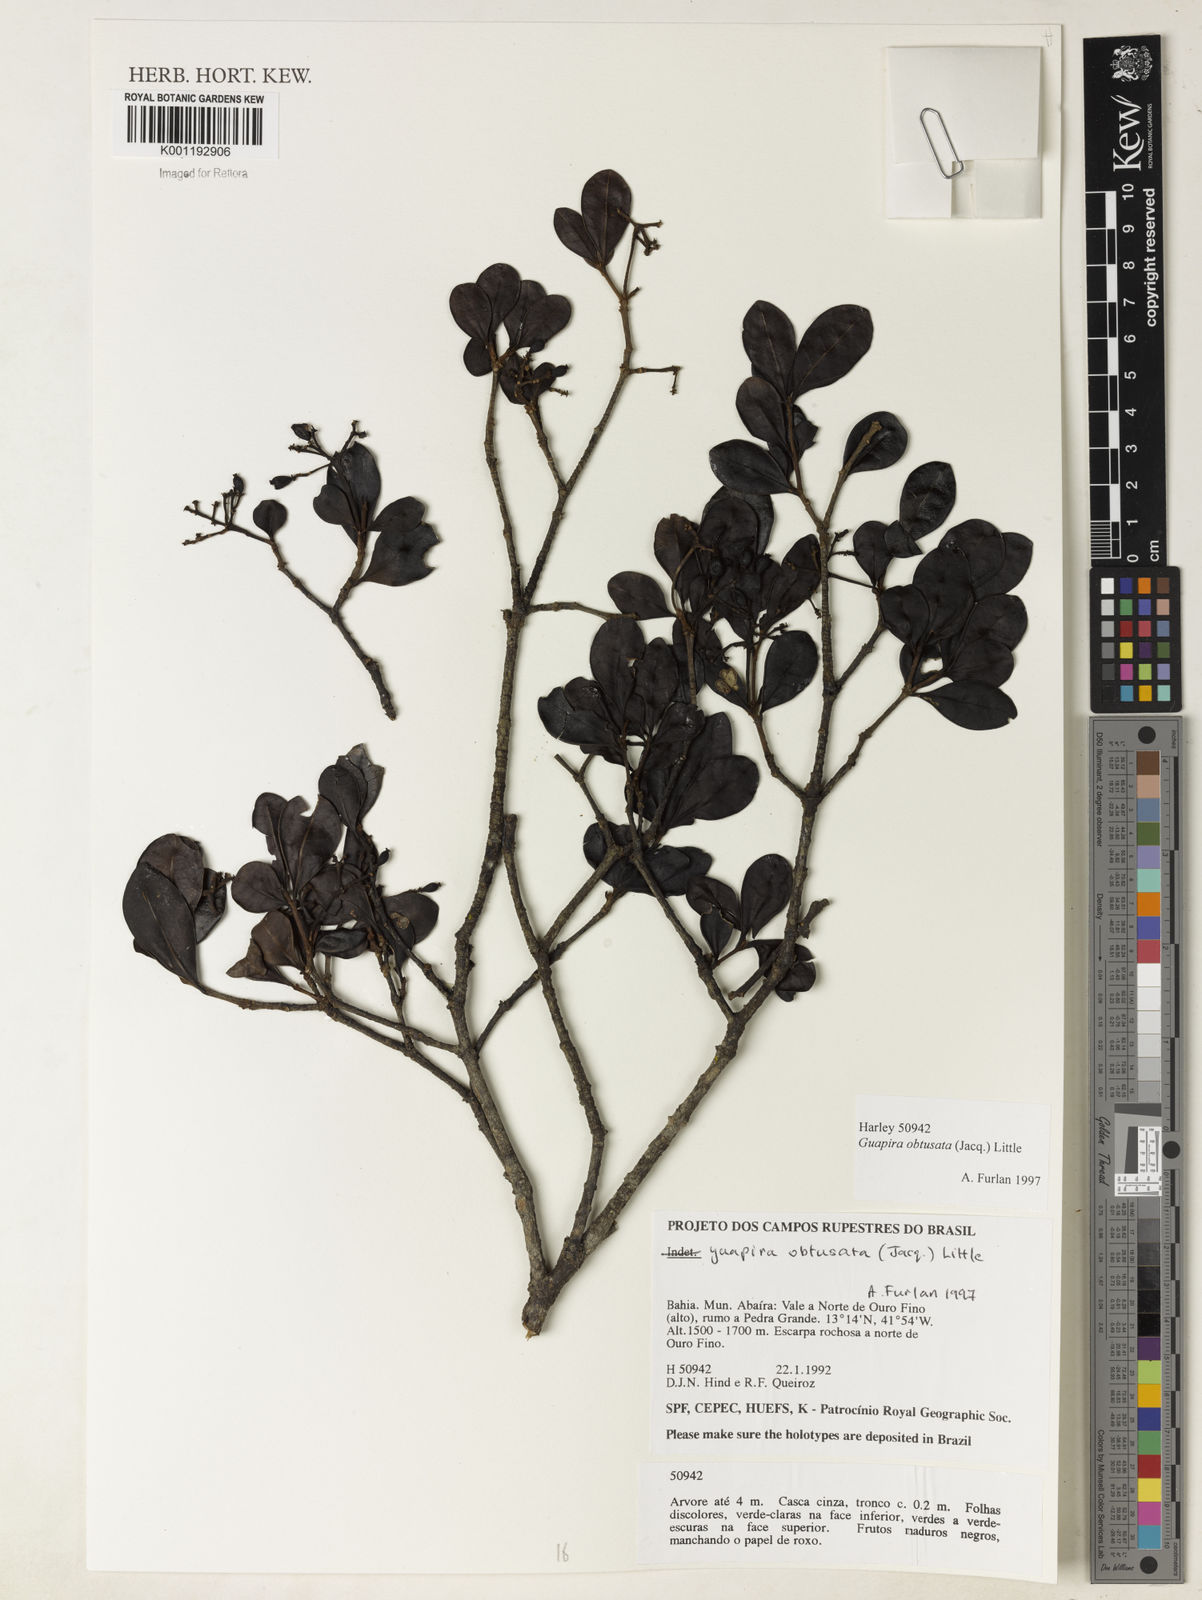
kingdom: Plantae
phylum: Tracheophyta
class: Magnoliopsida
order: Caryophyllales
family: Nyctaginaceae
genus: Guapira
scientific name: Guapira obtusata
